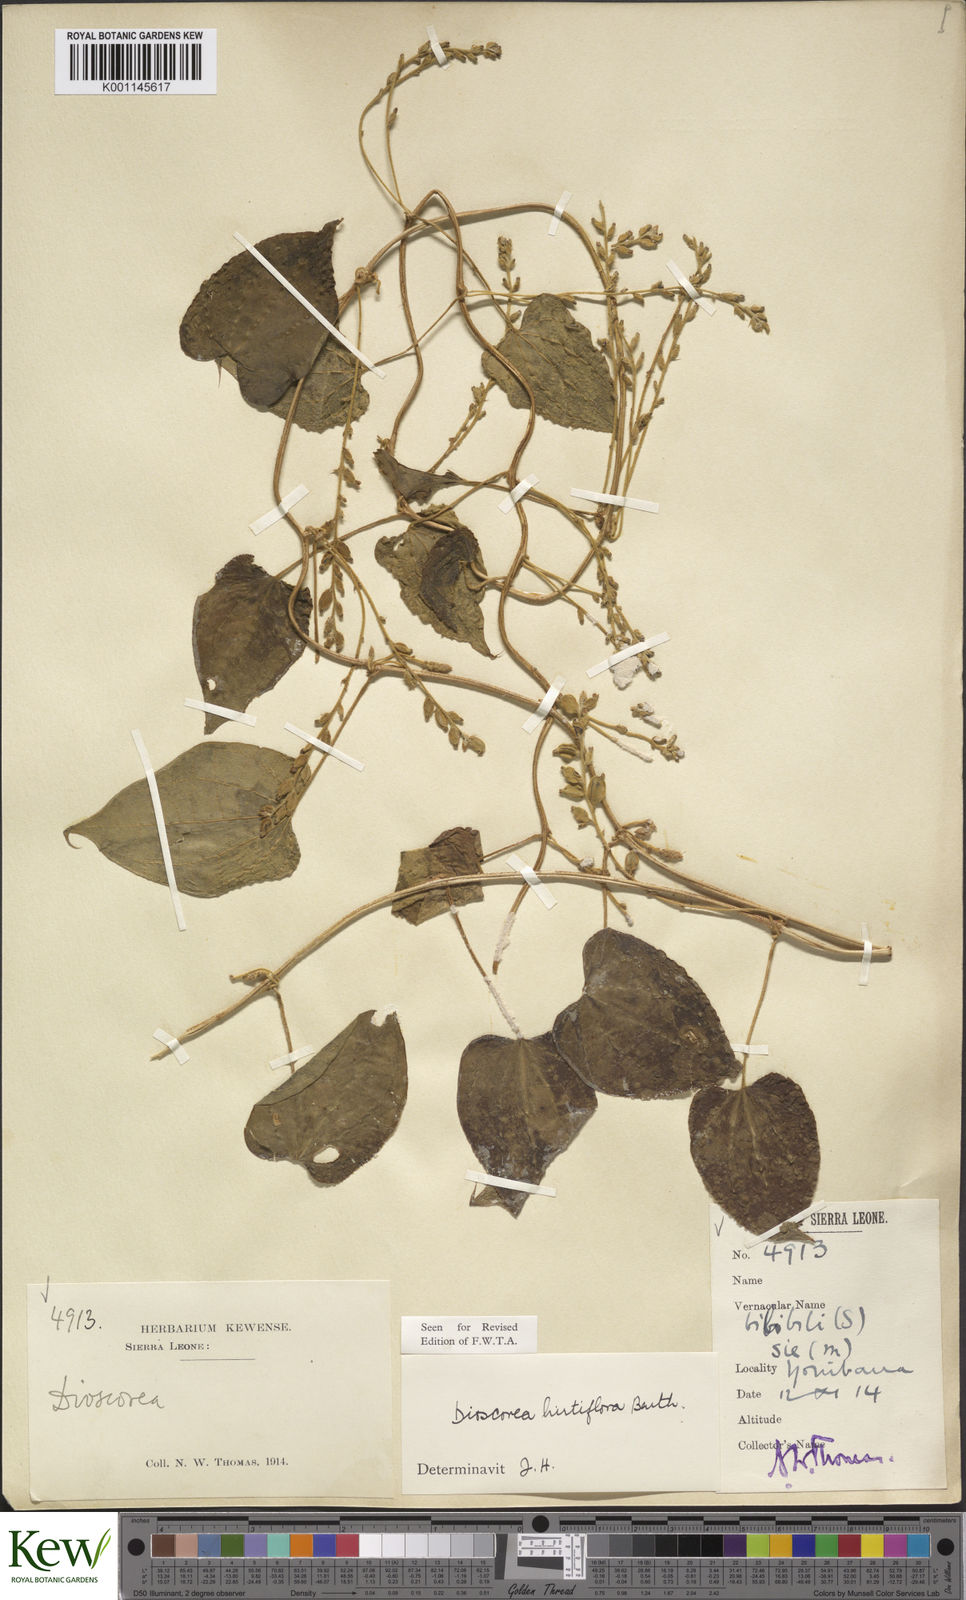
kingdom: Plantae
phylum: Tracheophyta
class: Liliopsida
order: Dioscoreales
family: Dioscoreaceae
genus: Dioscorea
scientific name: Dioscorea hirtiflora
